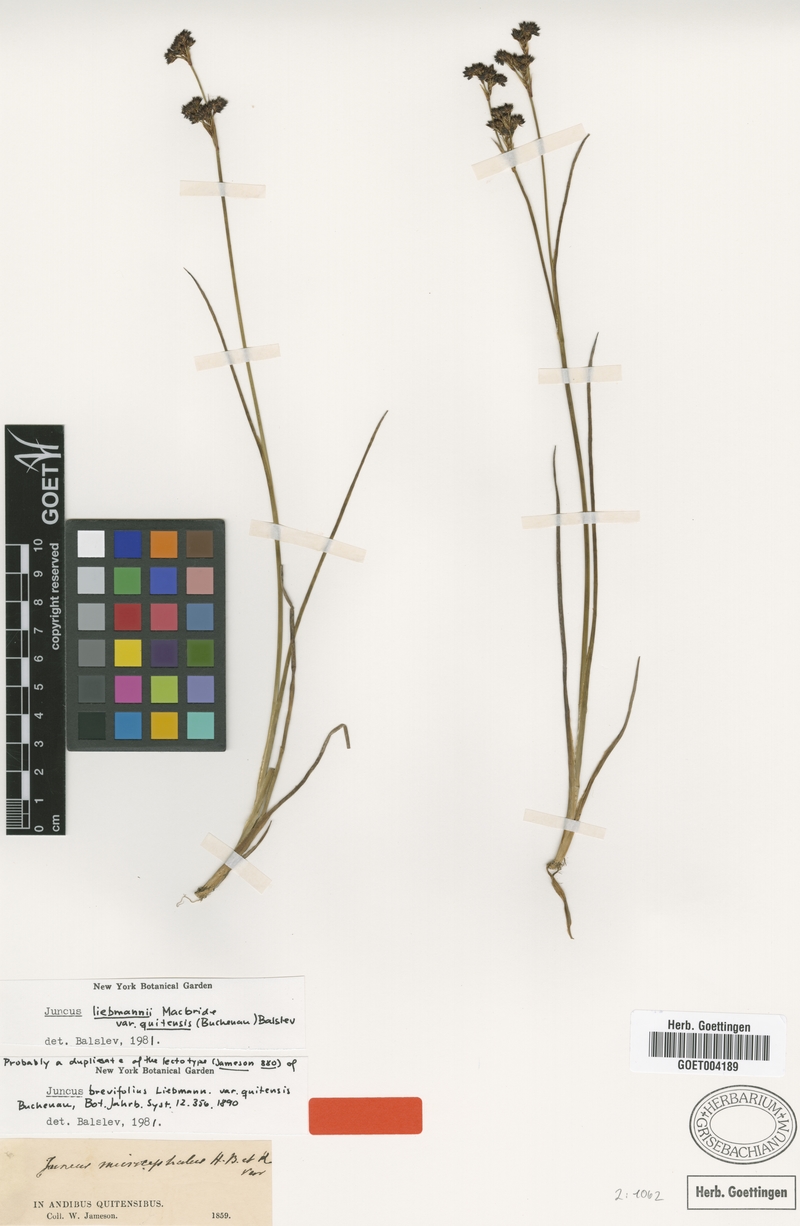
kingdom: Plantae
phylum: Tracheophyta
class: Liliopsida
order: Poales
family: Juncaceae
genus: Juncus
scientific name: Juncus liebmannii
